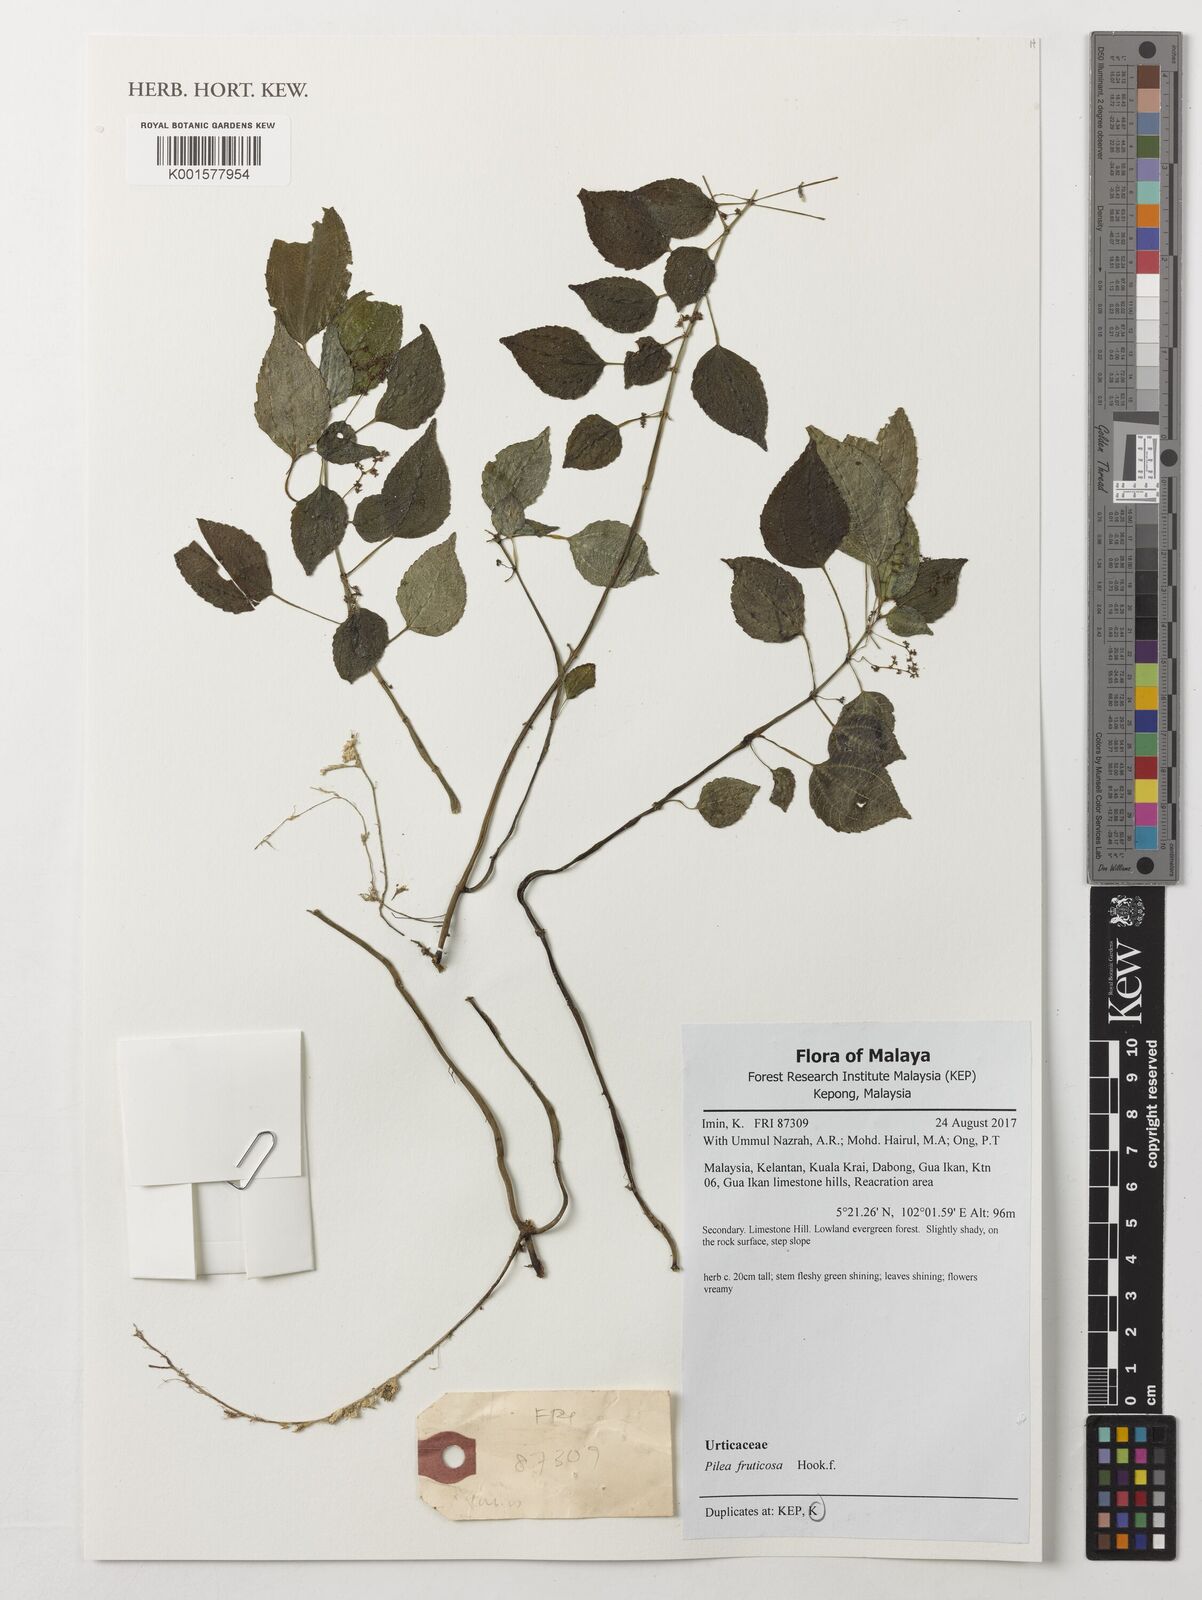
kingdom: Plantae
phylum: Tracheophyta
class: Magnoliopsida
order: Rosales
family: Urticaceae
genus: Pilea
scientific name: Pilea fruticosa
